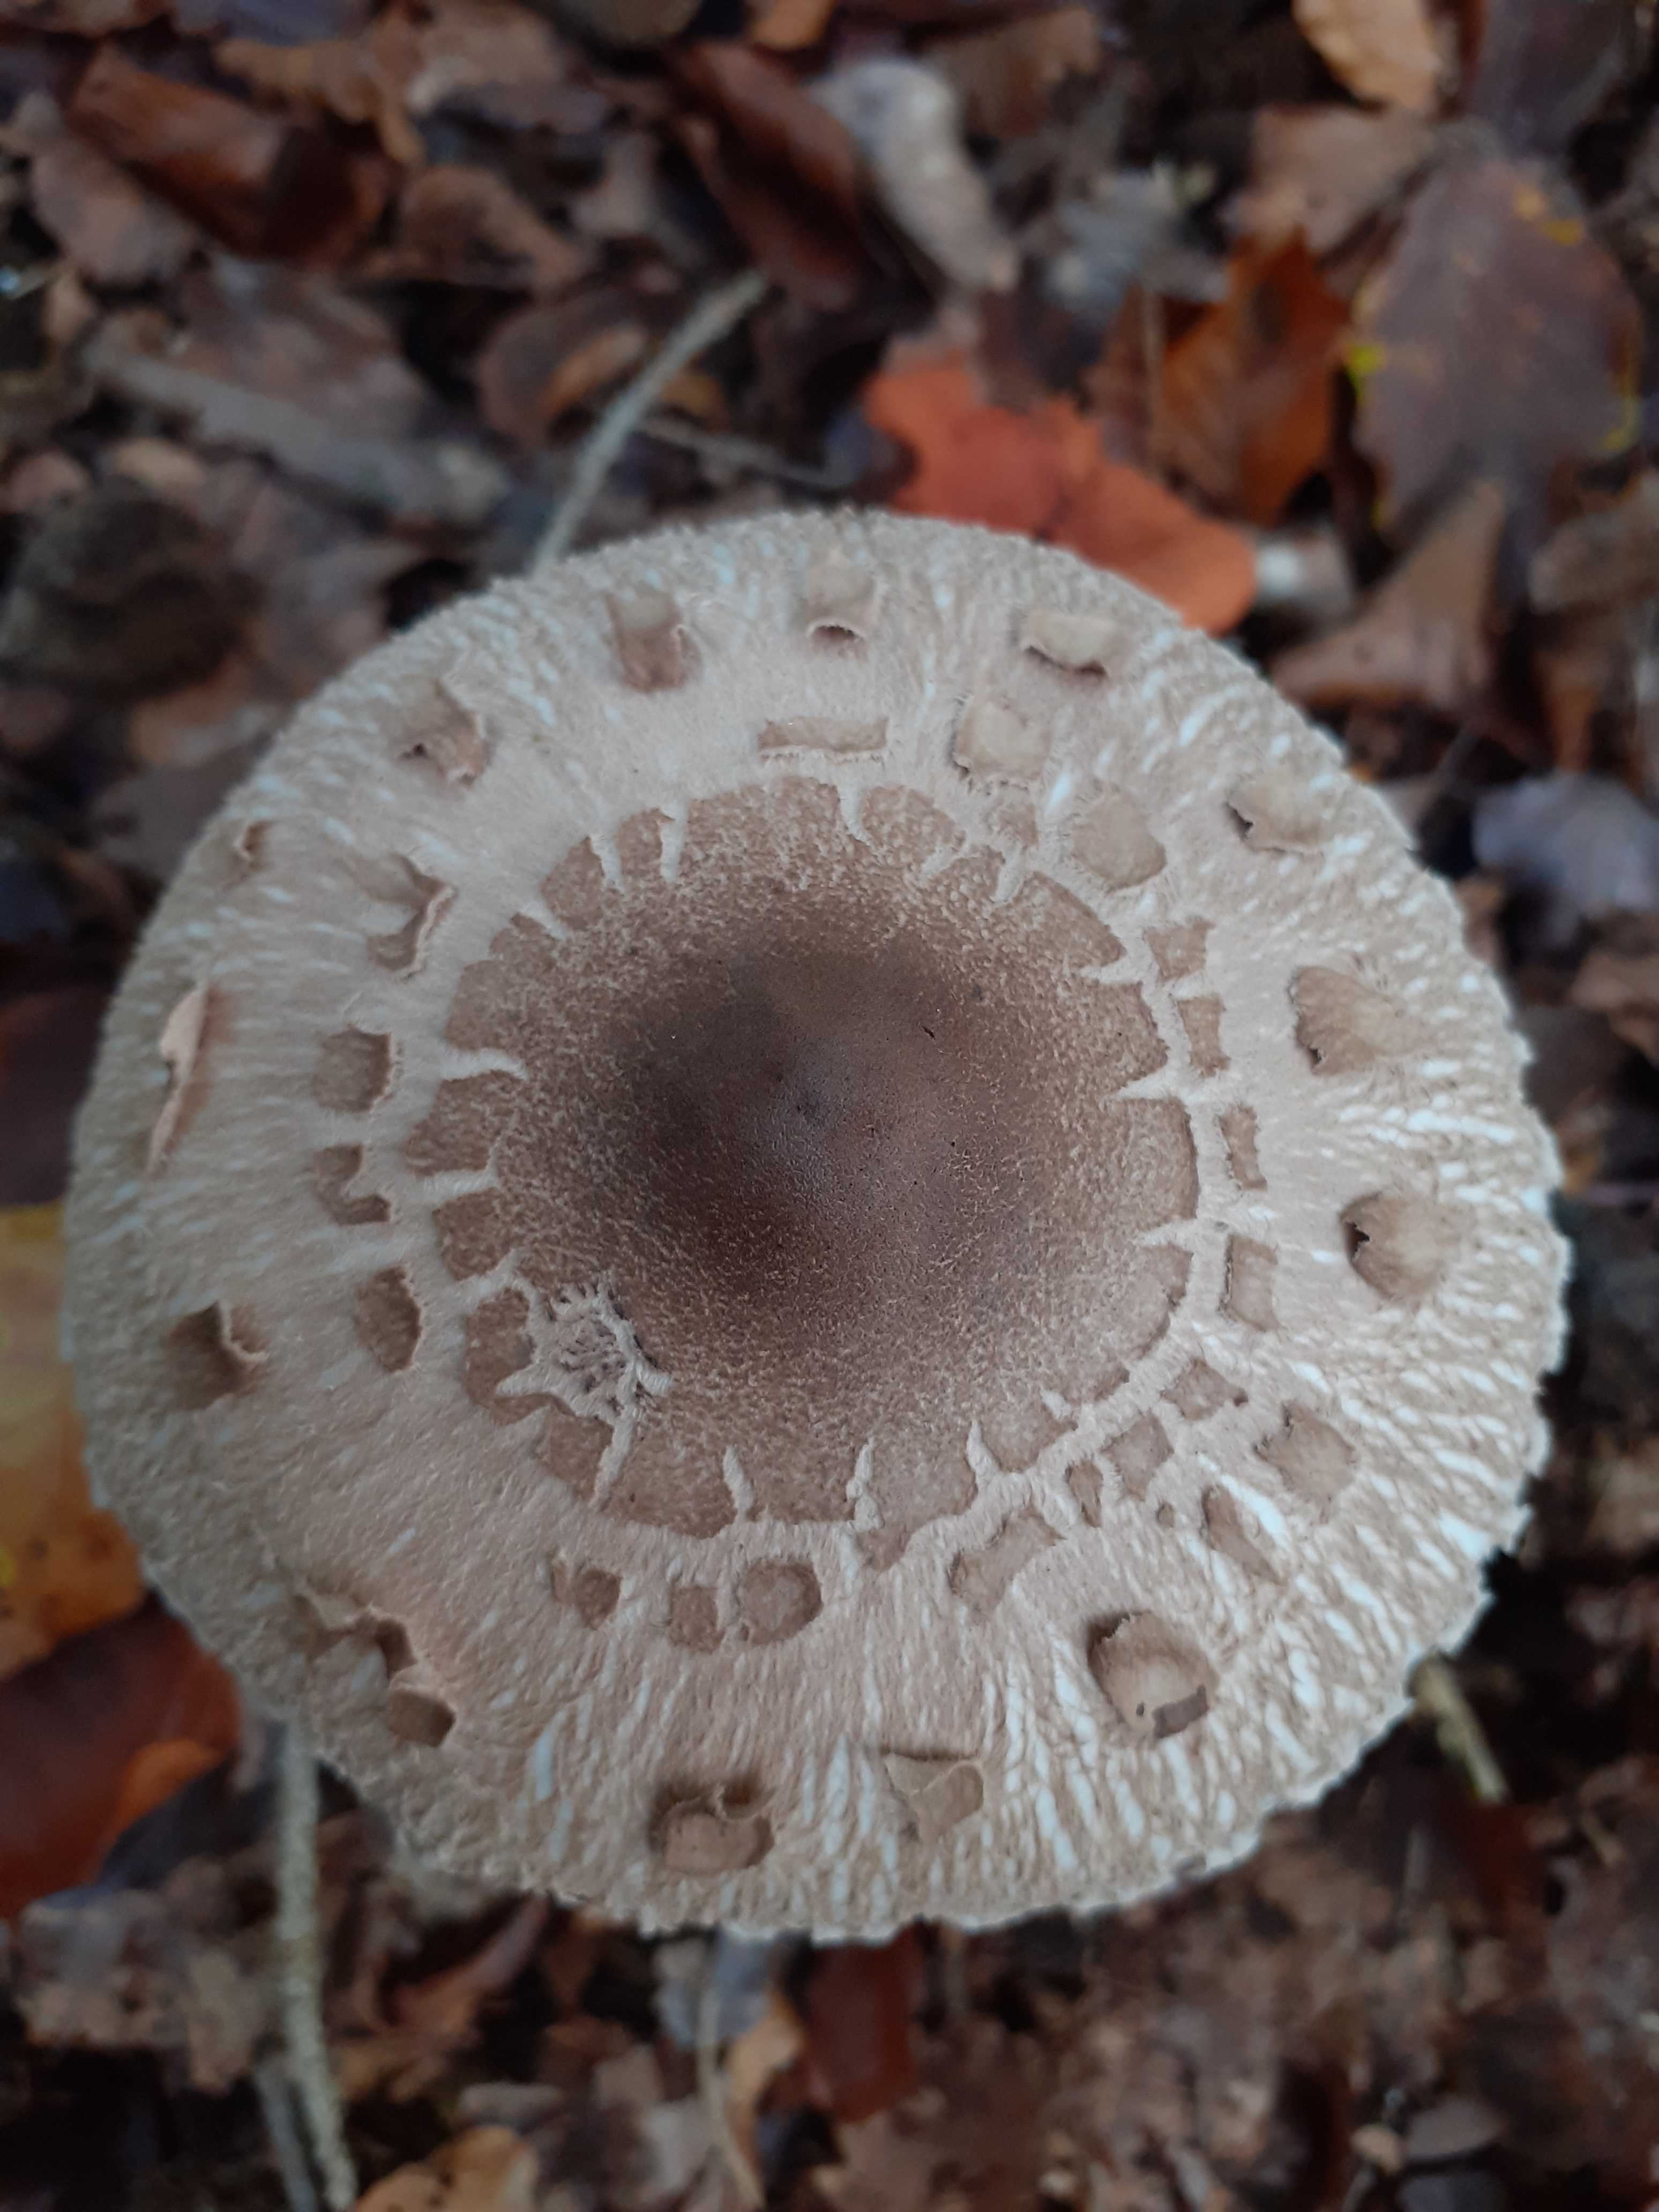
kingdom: Fungi
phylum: Basidiomycota
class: Agaricomycetes
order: Agaricales
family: Agaricaceae
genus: Macrolepiota
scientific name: Macrolepiota mastoidea
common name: puklet kæmpeparasolhat
